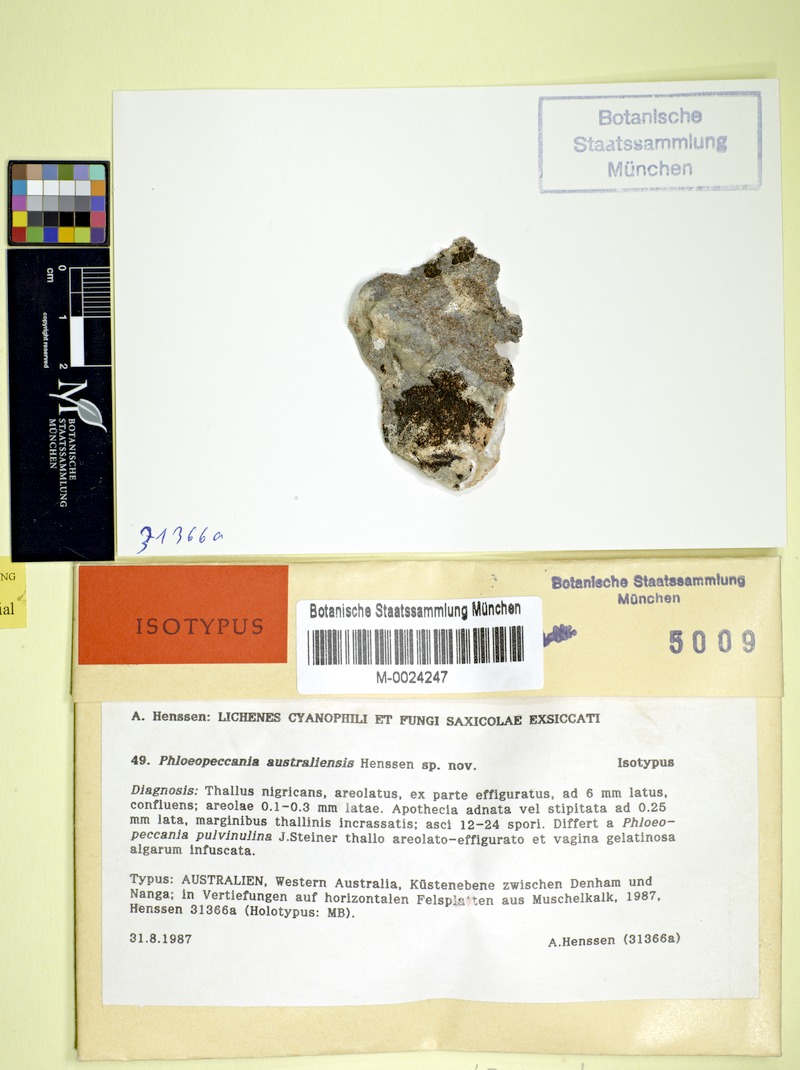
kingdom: Fungi
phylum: Ascomycota
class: Lichinomycetes
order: Lichinales
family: Lichinaceae
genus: Phloeopeccania
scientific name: Phloeopeccania australiensis
